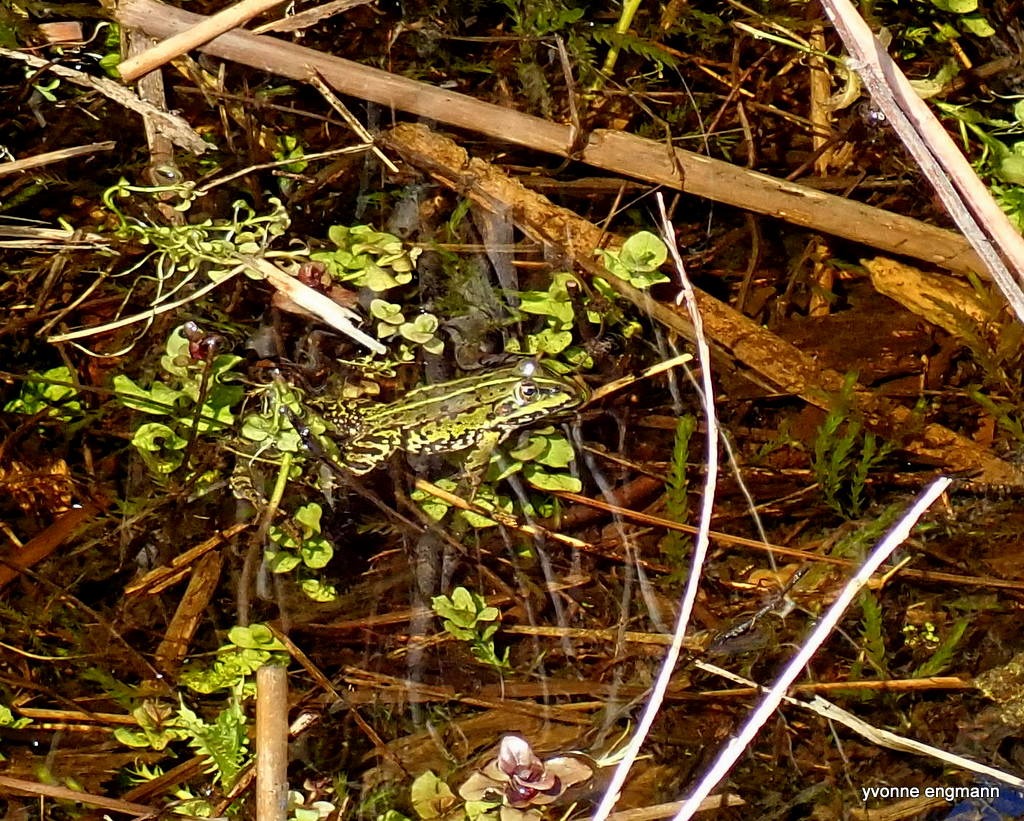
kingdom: Animalia
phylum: Chordata
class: Amphibia
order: Anura
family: Ranidae
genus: Pelophylax
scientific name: Pelophylax lessonae
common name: Grøn frø
